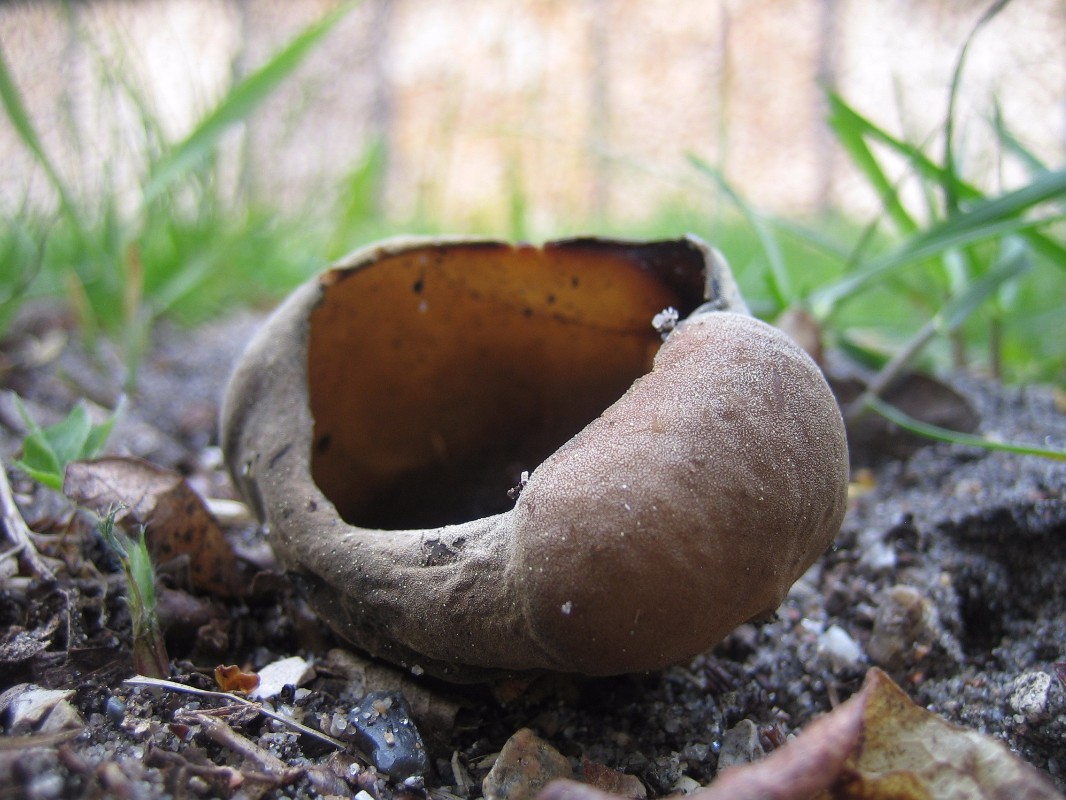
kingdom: Fungi
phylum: Ascomycota
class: Pezizomycetes
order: Pezizales
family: Helvellaceae
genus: Helvella
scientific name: Helvella acetabulum
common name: pokal-foldhat
